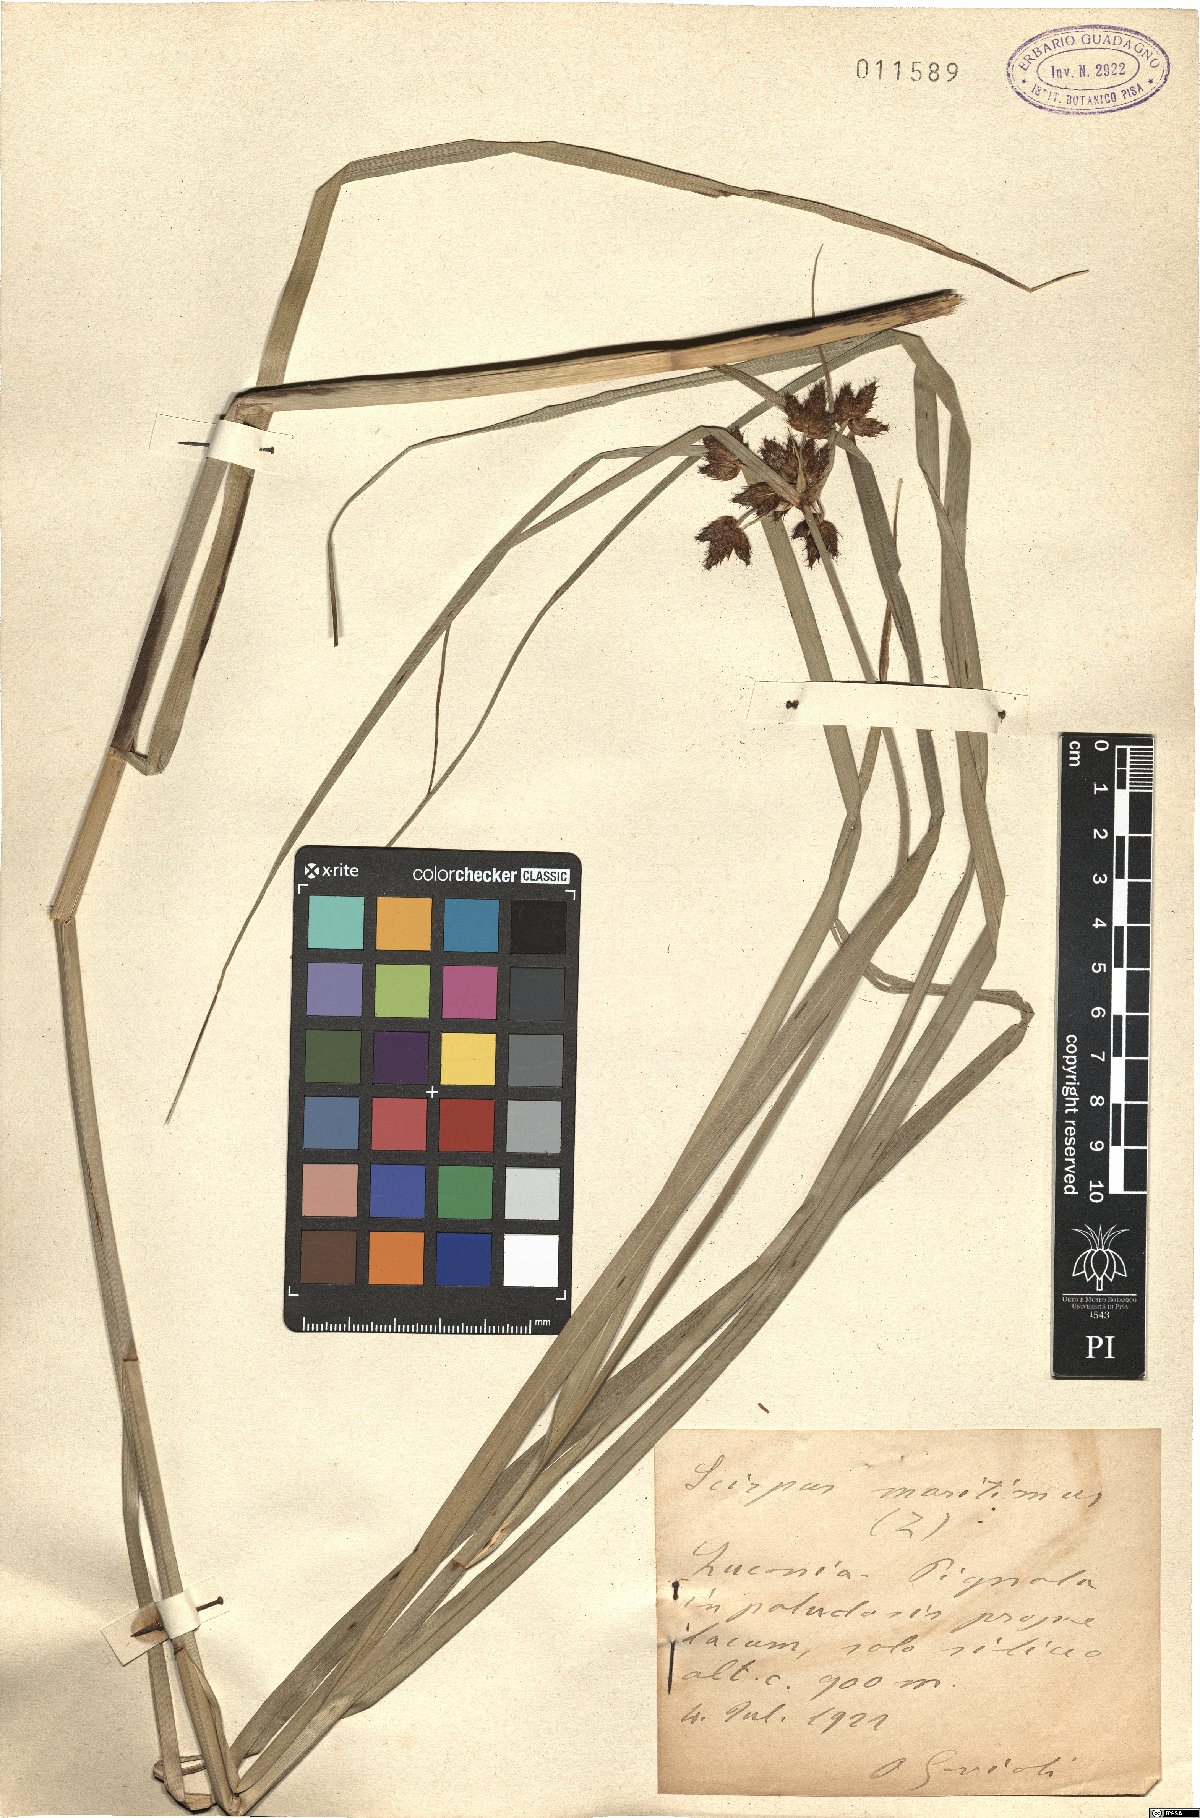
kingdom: Plantae
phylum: Tracheophyta
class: Liliopsida
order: Poales
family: Cyperaceae
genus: Bolboschoenus
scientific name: Bolboschoenus maritimus
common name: Sea club-rush
